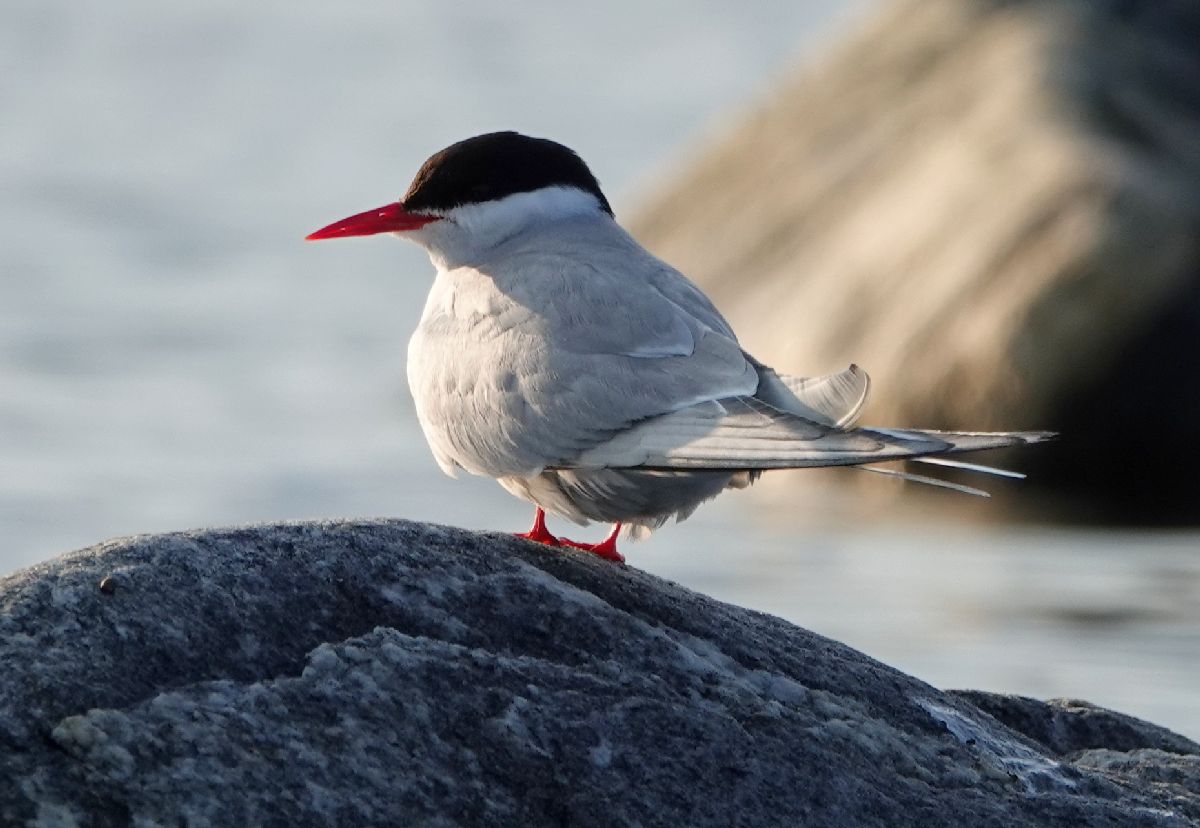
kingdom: Animalia
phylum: Chordata
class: Aves
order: Charadriiformes
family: Laridae
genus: Sterna
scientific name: Sterna paradisaea
